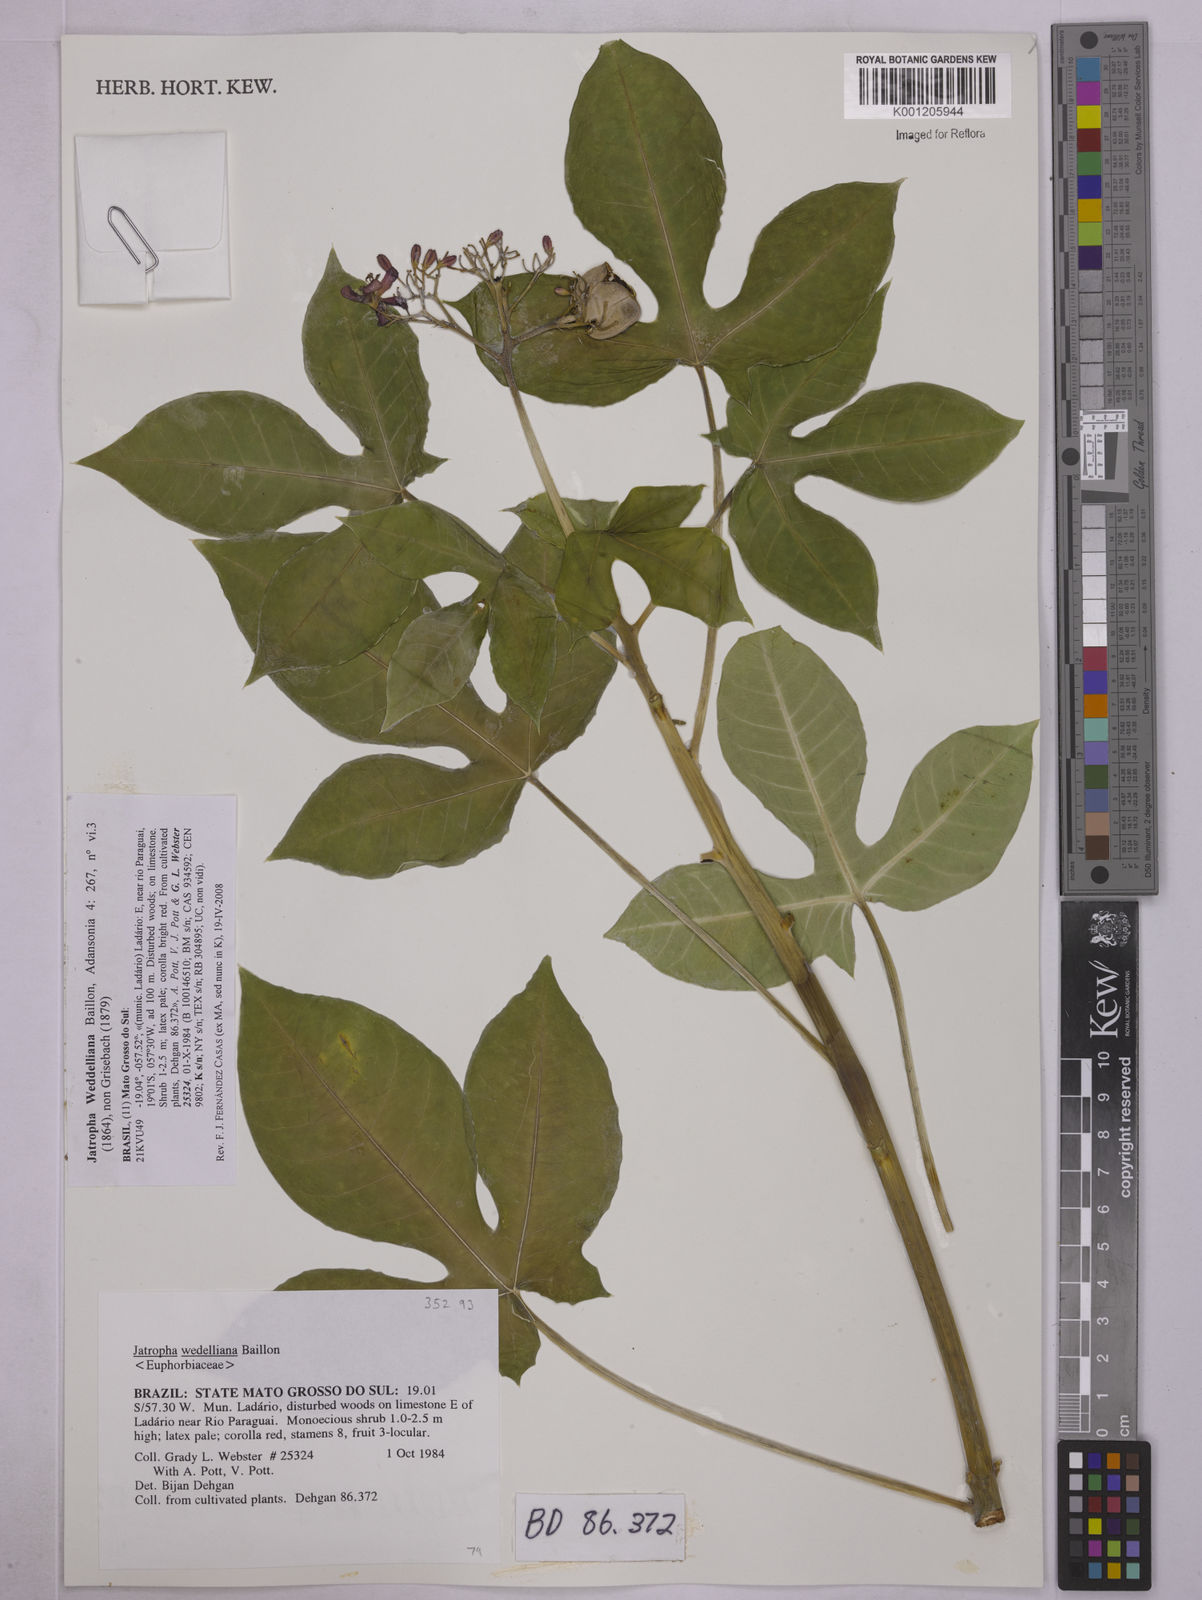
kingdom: Plantae
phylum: Tracheophyta
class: Magnoliopsida
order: Malpighiales
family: Euphorbiaceae
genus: Jatropha
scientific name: Jatropha weddeliana
